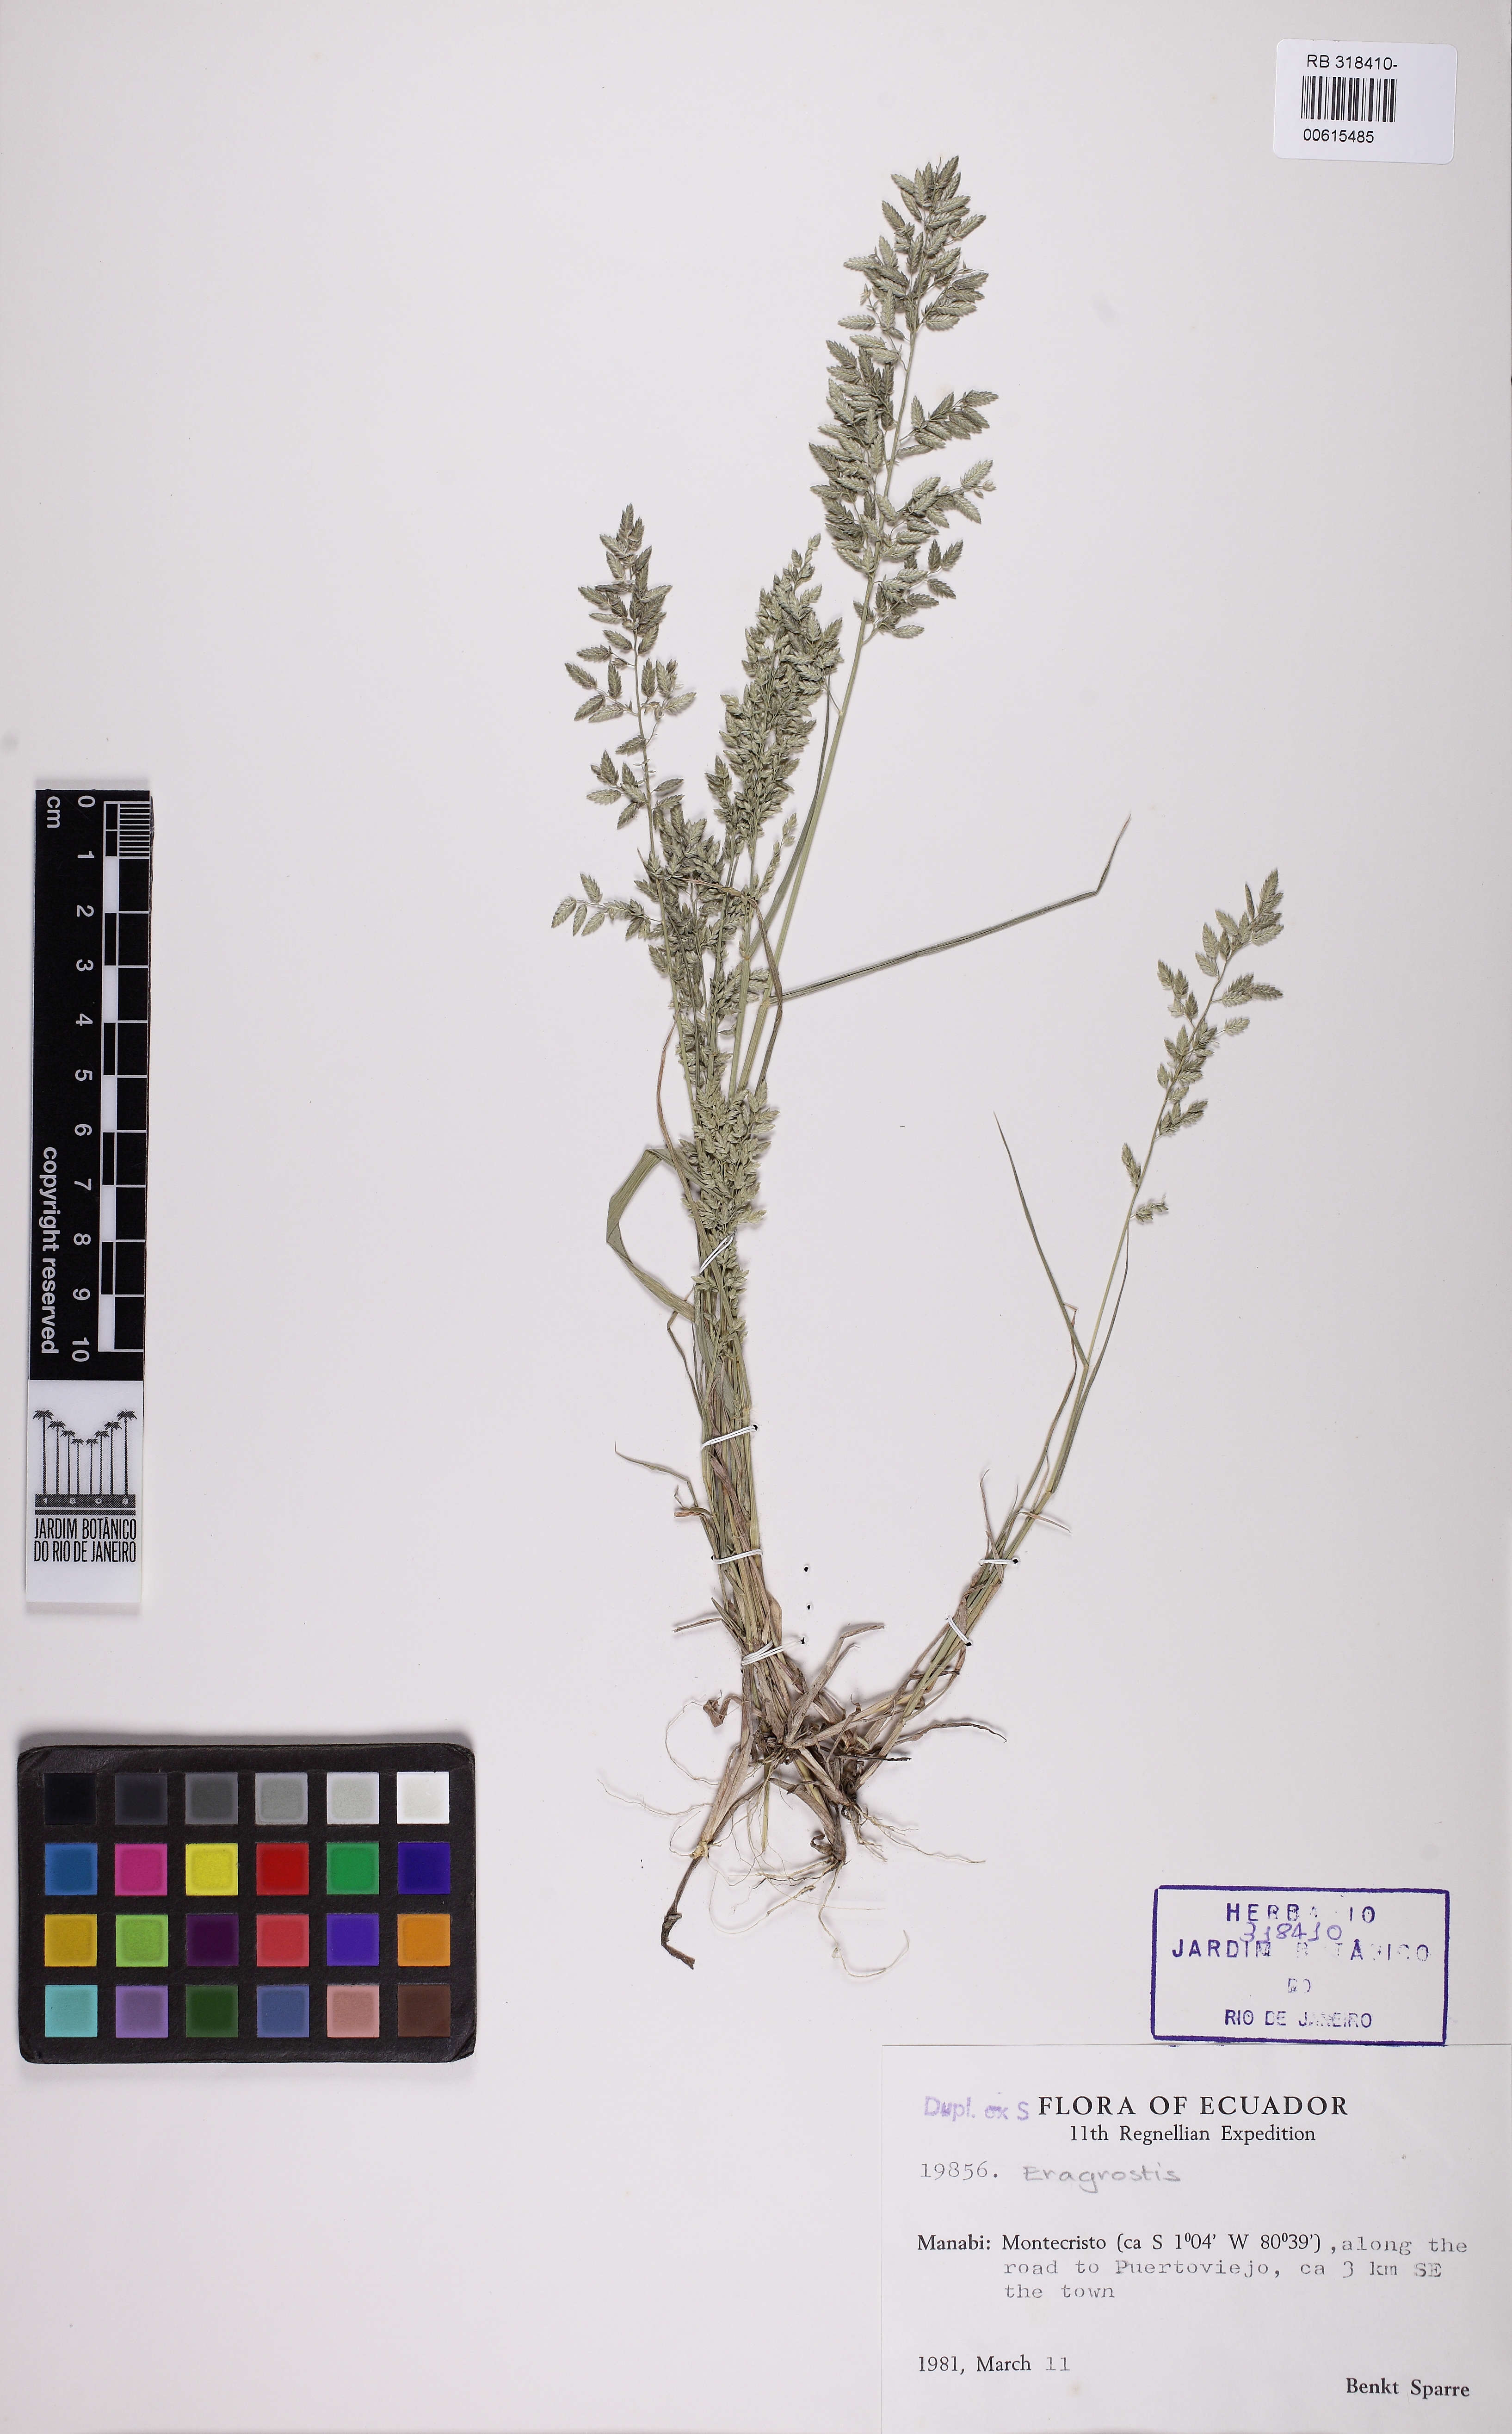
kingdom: Plantae
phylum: Tracheophyta
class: Liliopsida
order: Poales
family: Poaceae
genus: Eragrostis
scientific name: Eragrostis
